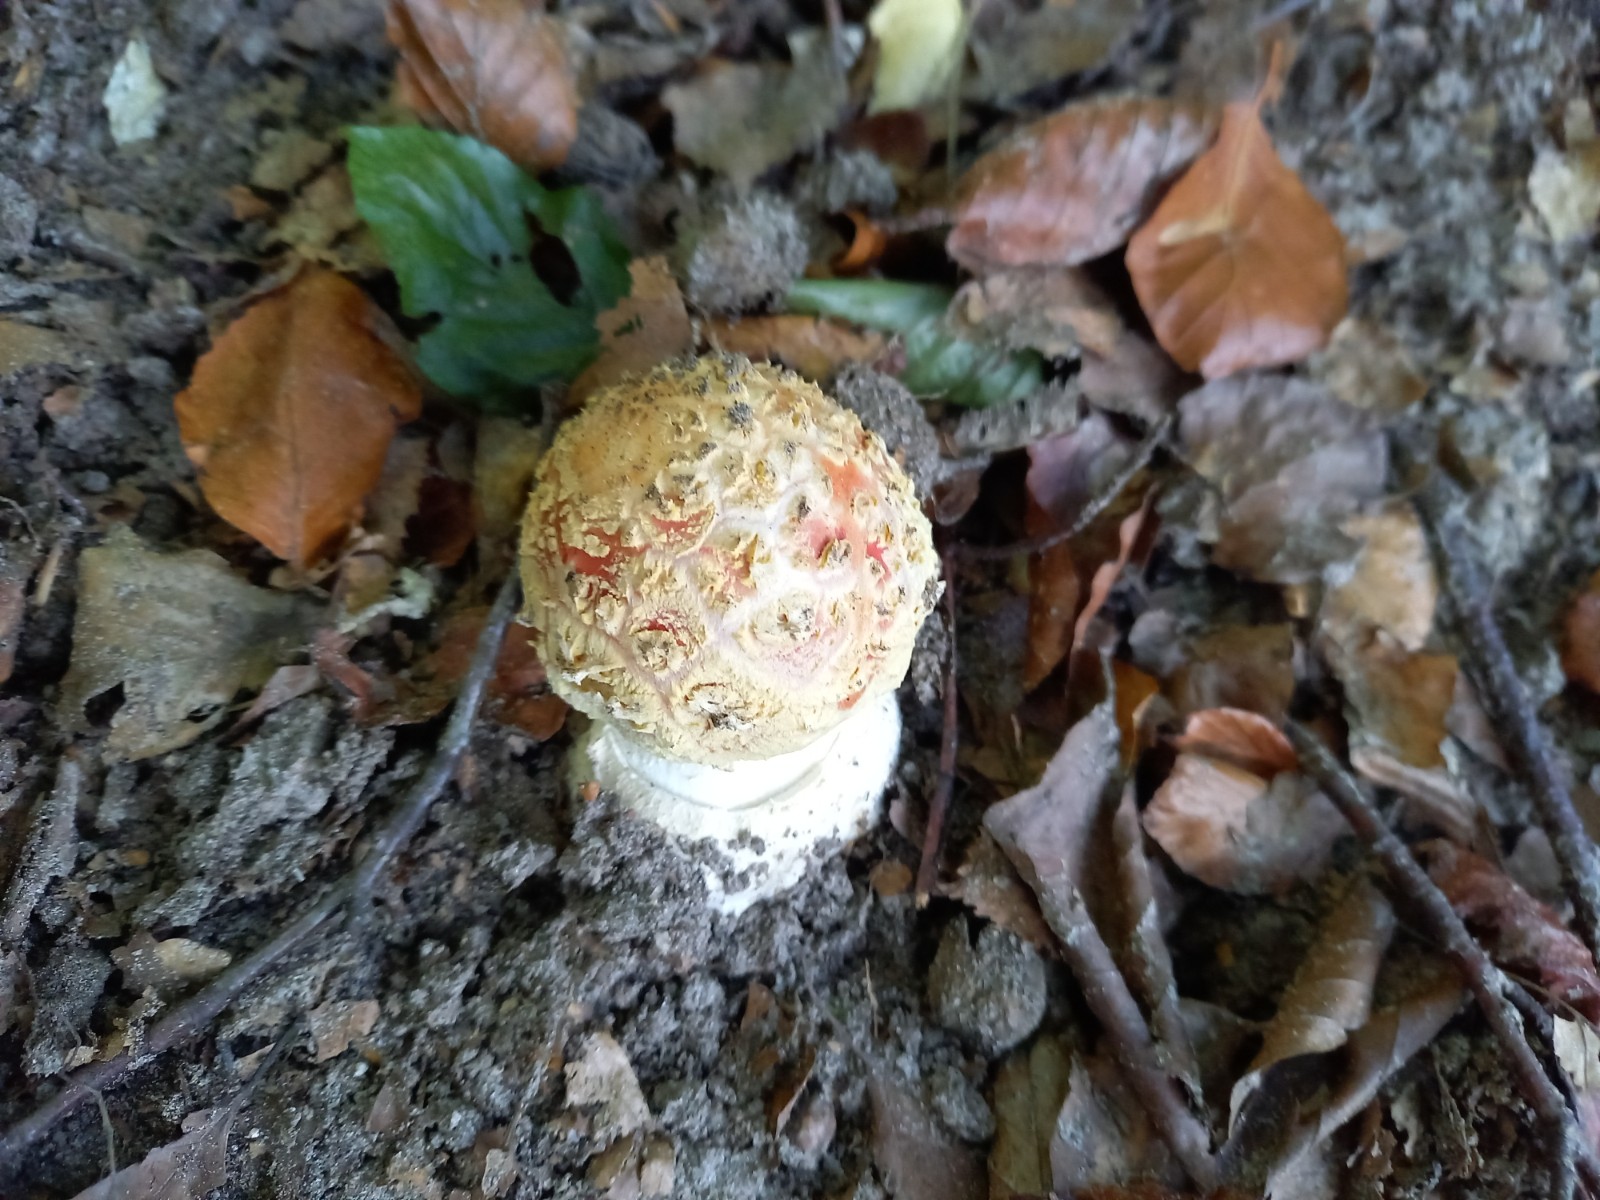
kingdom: Fungi
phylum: Basidiomycota
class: Agaricomycetes
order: Agaricales
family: Amanitaceae
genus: Amanita
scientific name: Amanita muscaria
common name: rød fluesvamp
